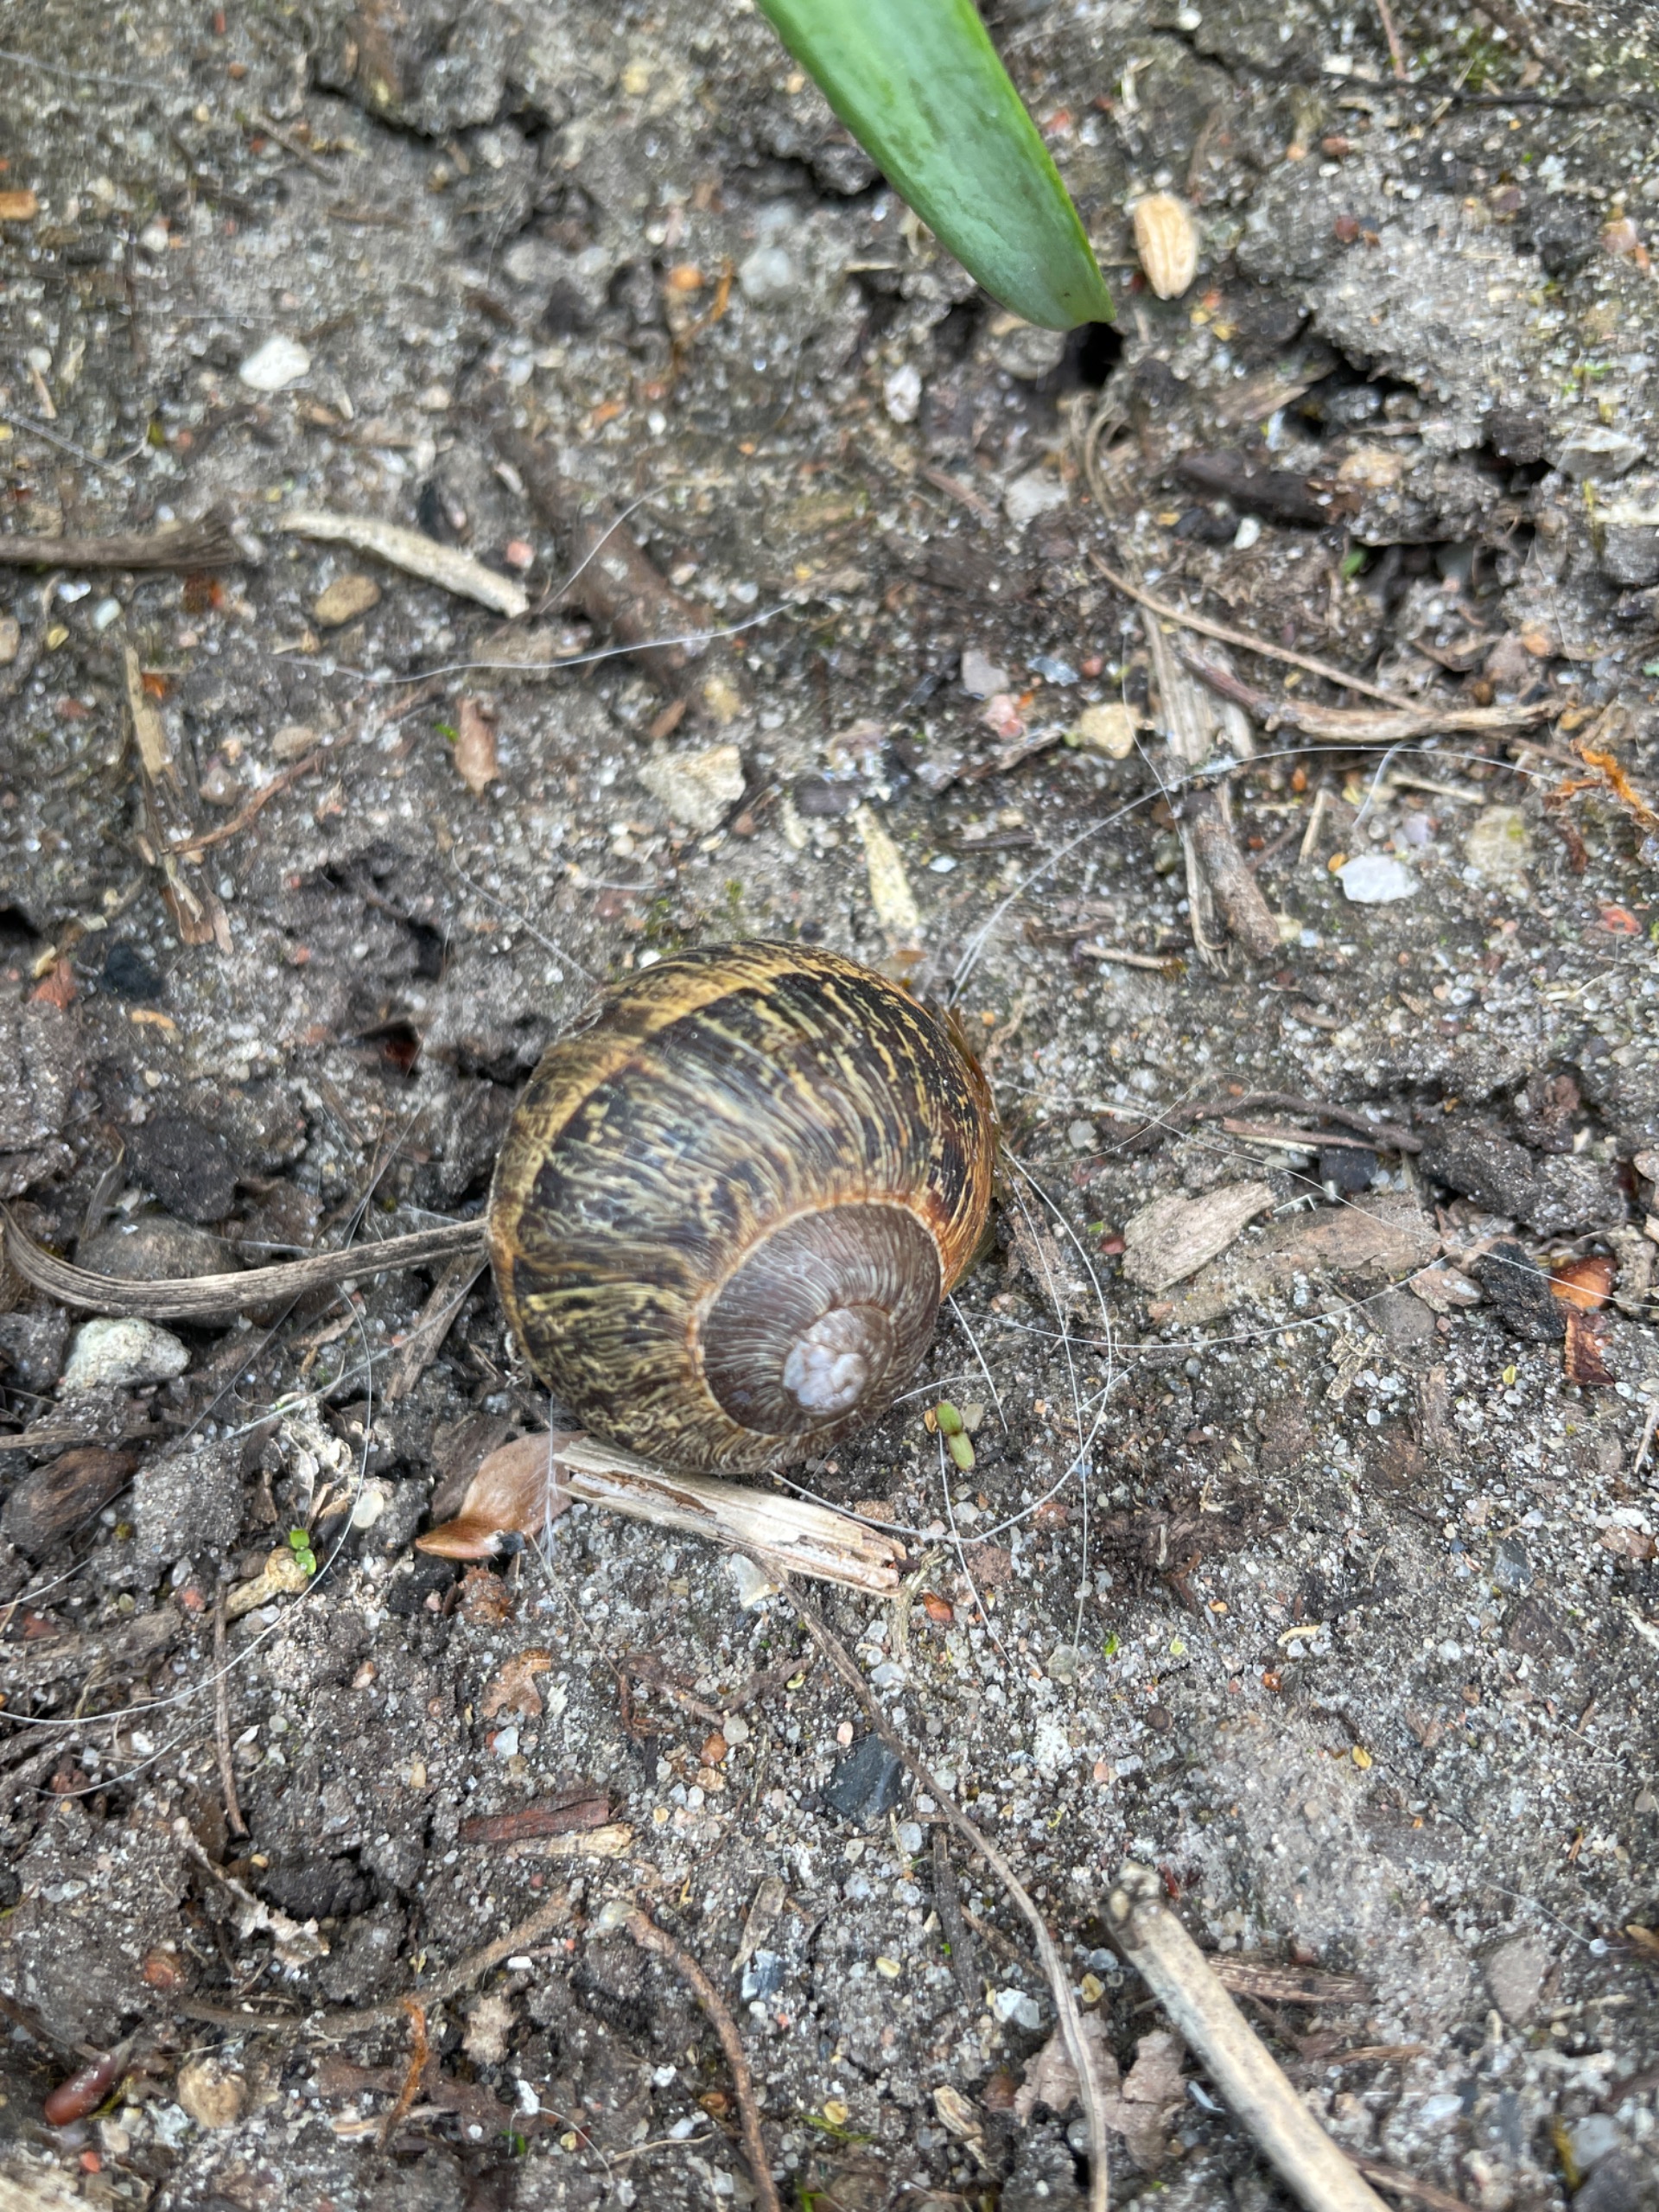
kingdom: Animalia
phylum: Mollusca
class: Gastropoda
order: Stylommatophora
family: Helicidae
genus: Cornu
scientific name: Cornu aspersum
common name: Plettet voldsnegl
